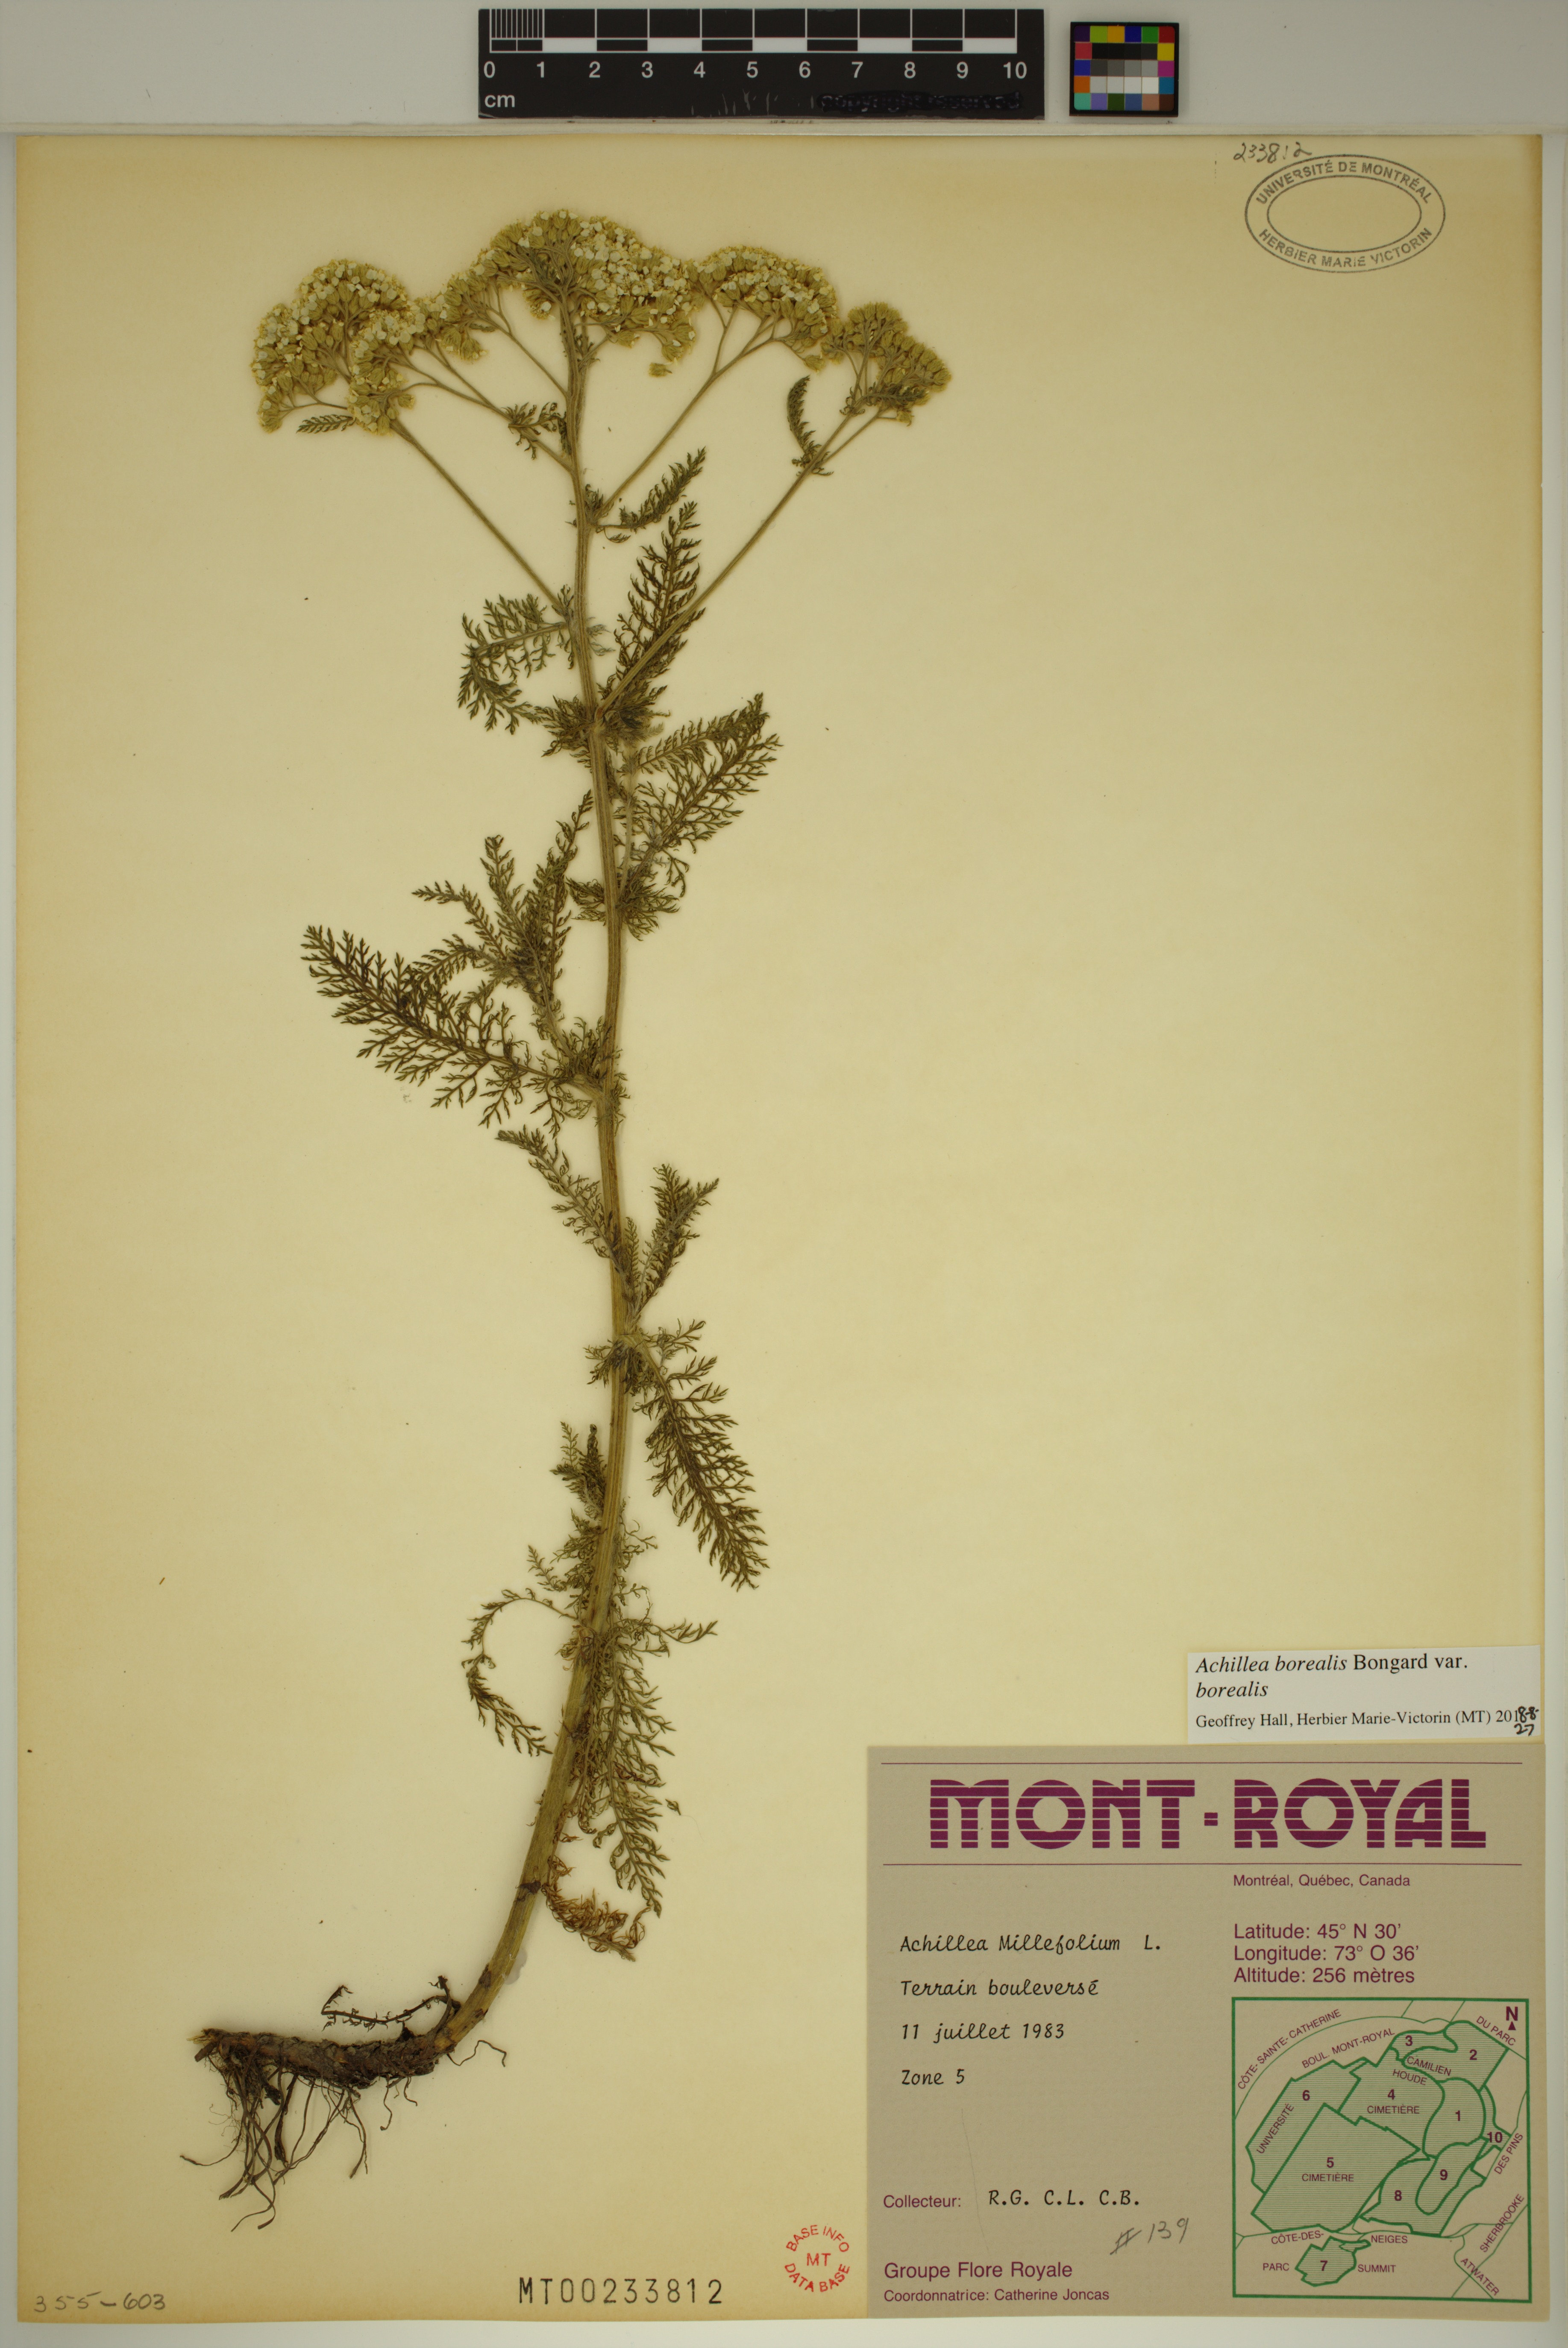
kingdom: Plantae
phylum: Tracheophyta
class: Magnoliopsida
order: Asterales
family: Asteraceae
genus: Achillea
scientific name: Achillea millefolium
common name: Yarrow
